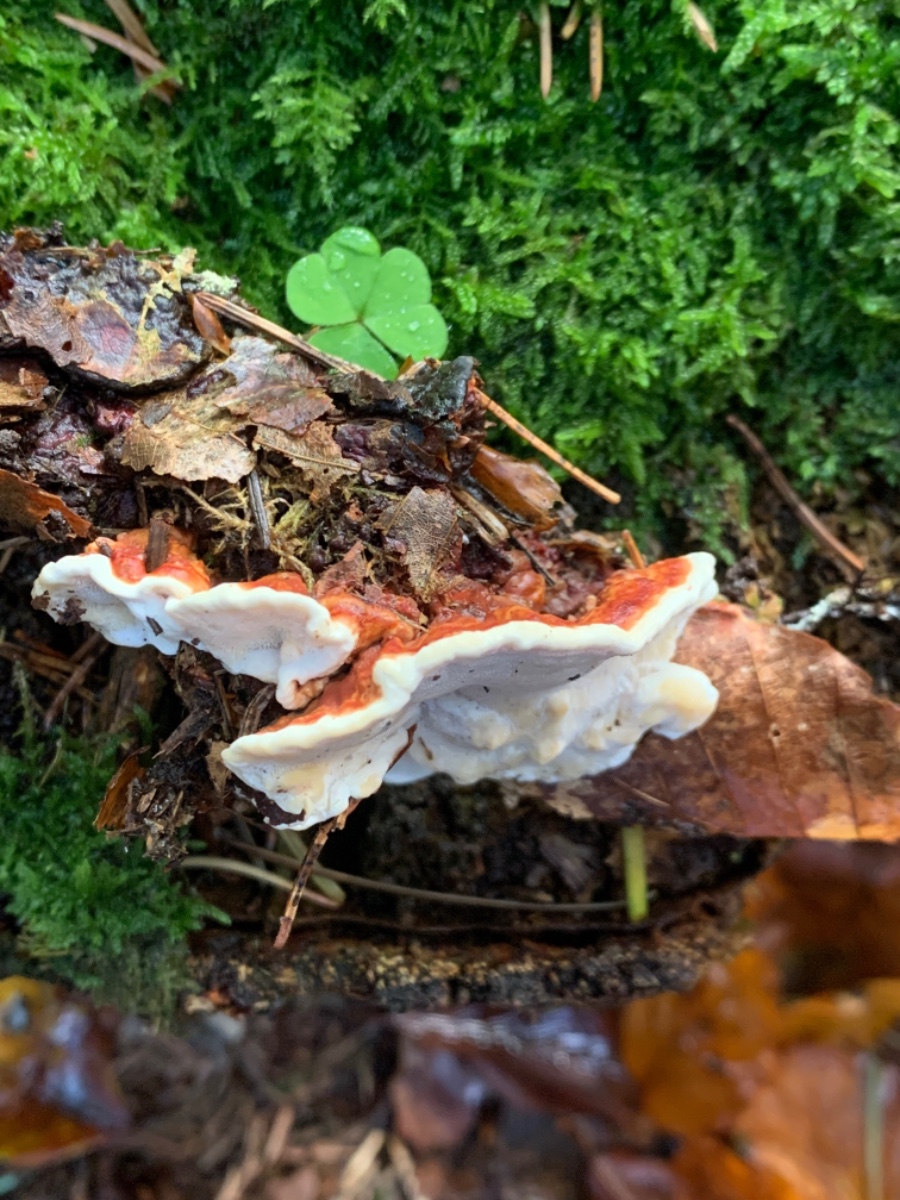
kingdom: Fungi
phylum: Basidiomycota
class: Agaricomycetes
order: Russulales
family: Bondarzewiaceae
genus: Heterobasidion
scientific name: Heterobasidion annosum
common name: almindelig rodfordærver
